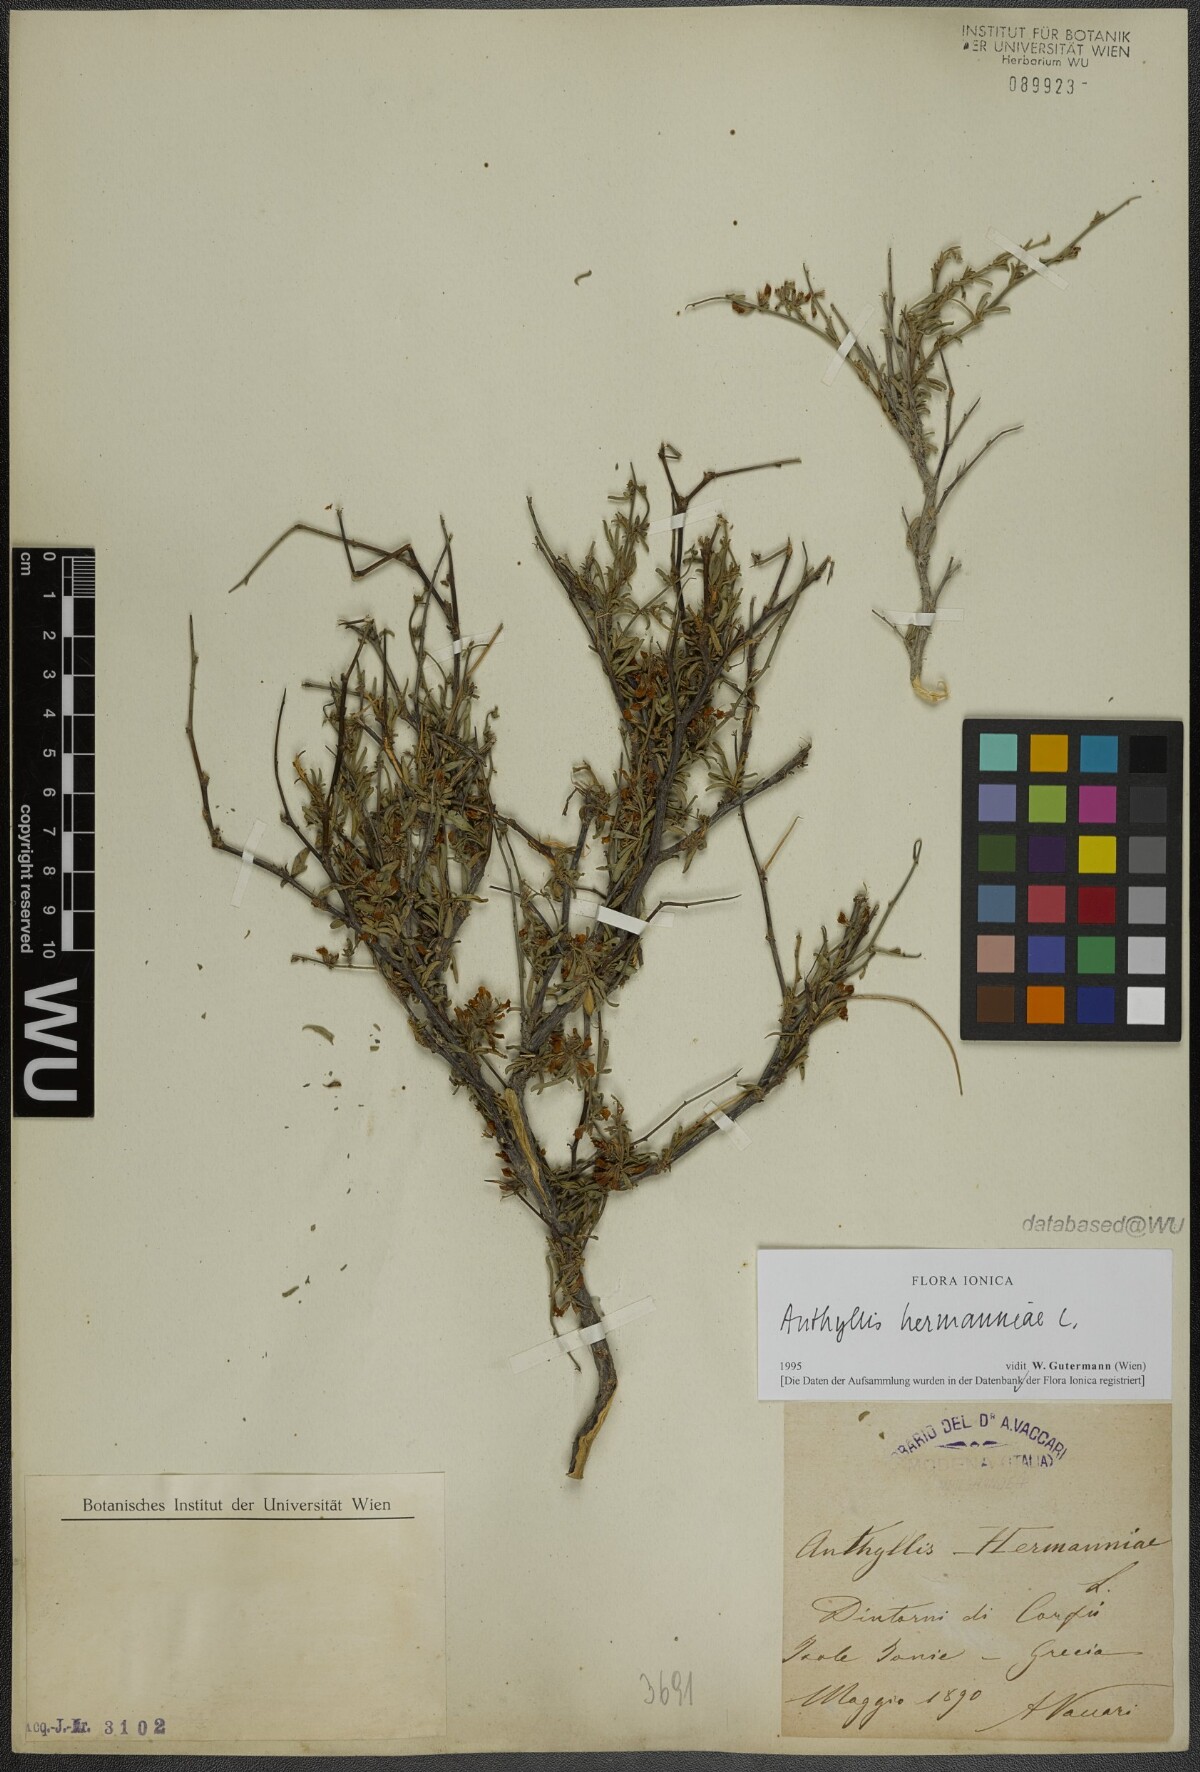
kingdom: Plantae
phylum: Tracheophyta
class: Magnoliopsida
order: Fabales
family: Fabaceae
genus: Anthyllis
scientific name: Anthyllis hermanniae
